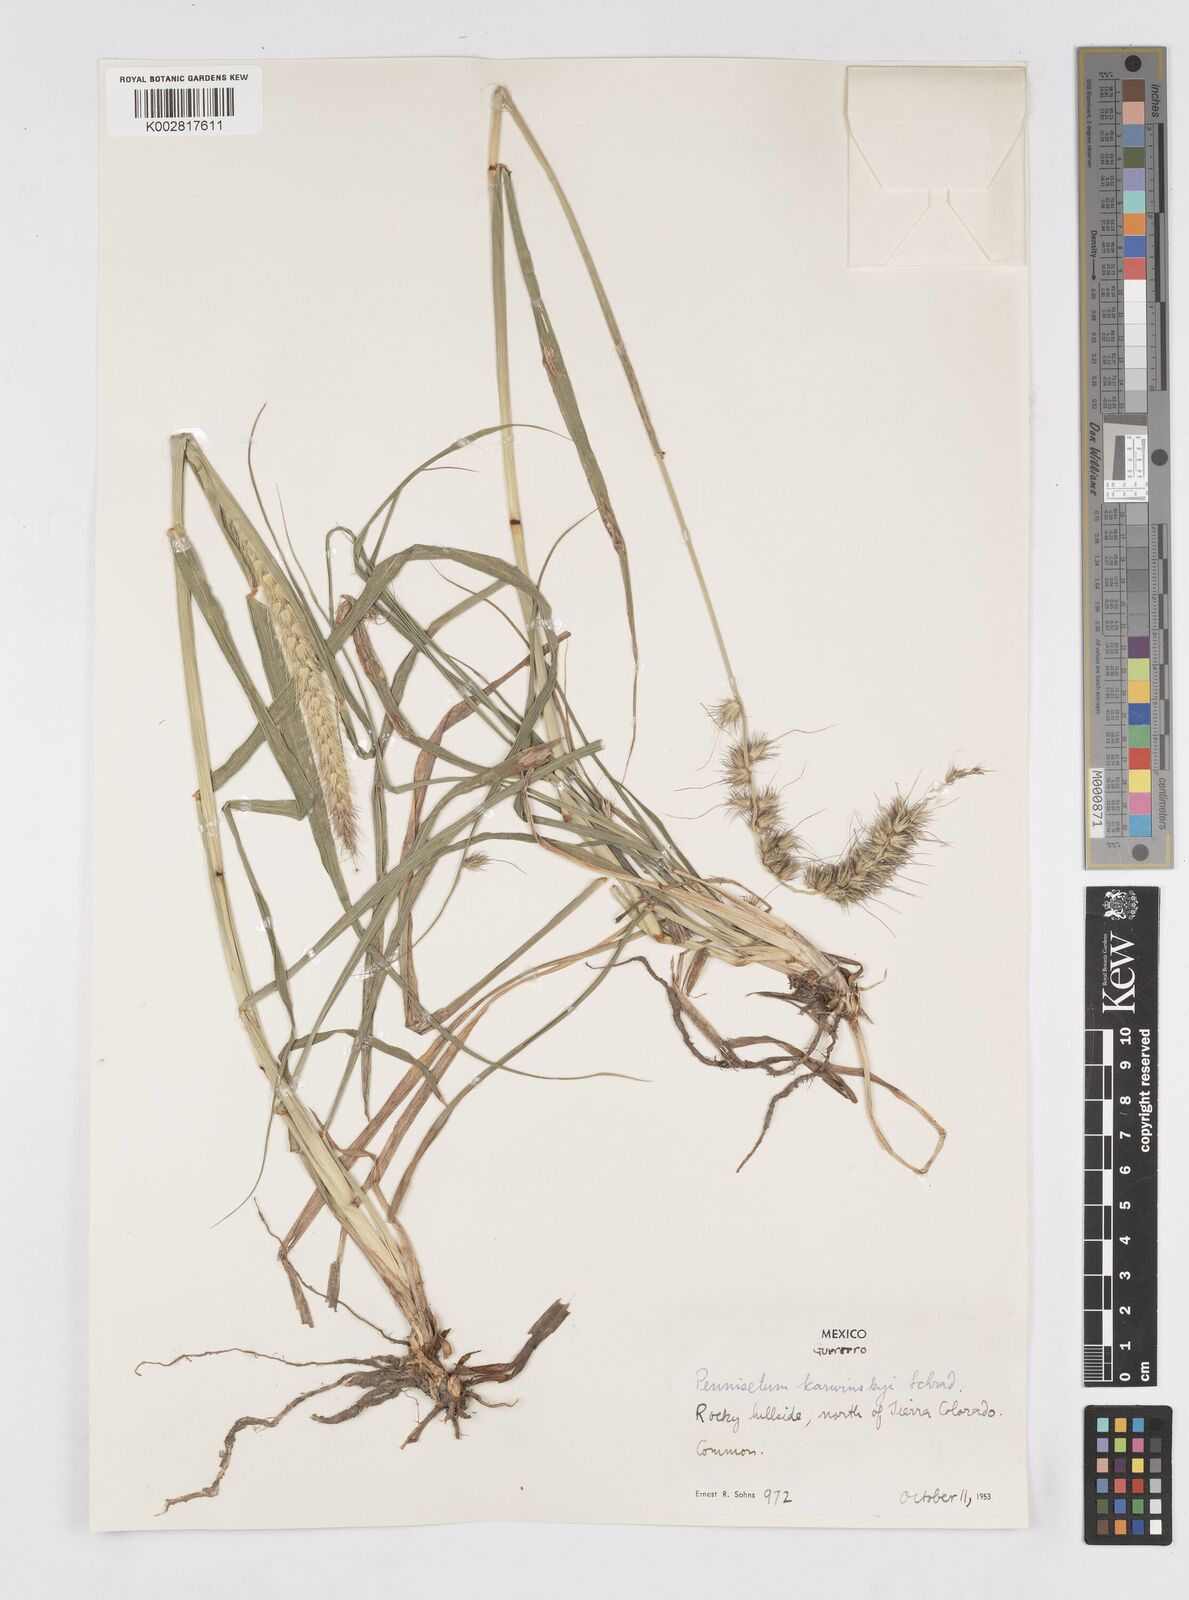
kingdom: Plantae
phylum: Tracheophyta
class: Liliopsida
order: Poales
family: Poaceae
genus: Cenchrus
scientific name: Cenchrus multiflorus
